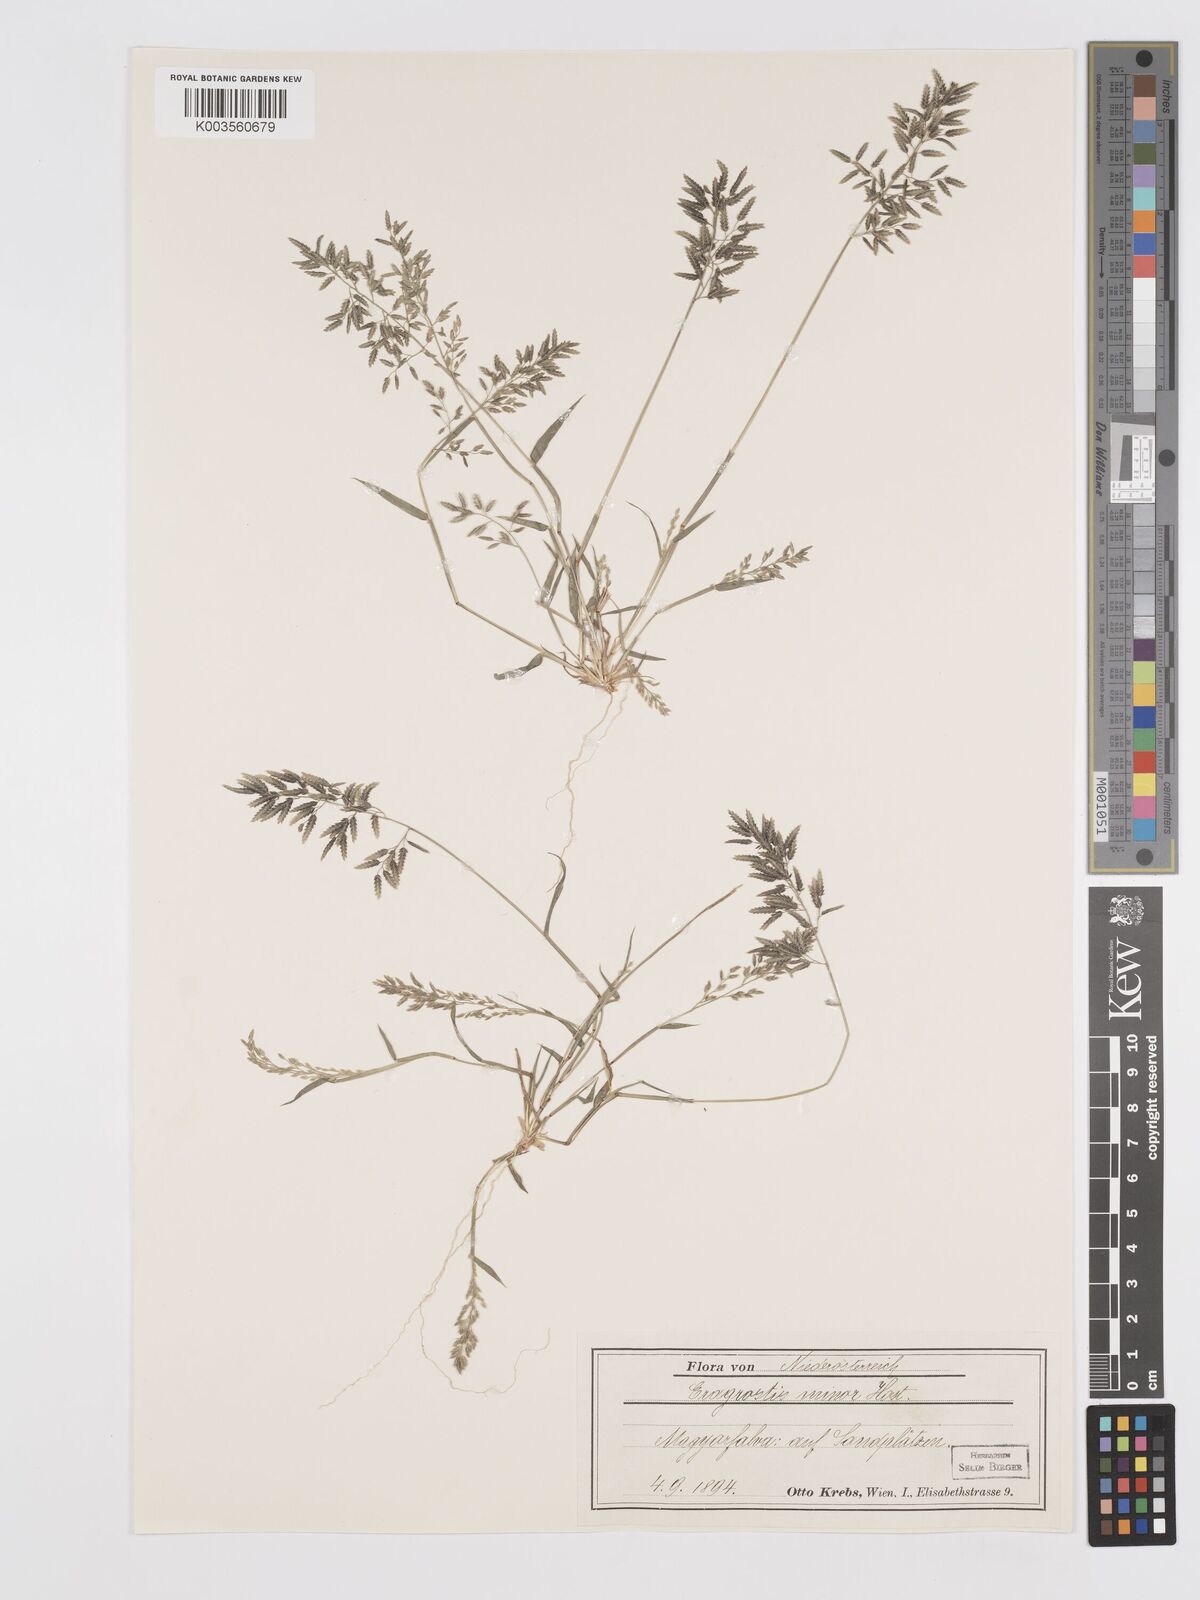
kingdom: Plantae
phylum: Tracheophyta
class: Liliopsida
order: Poales
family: Poaceae
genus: Eragrostis
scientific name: Eragrostis minor
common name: Small love-grass
